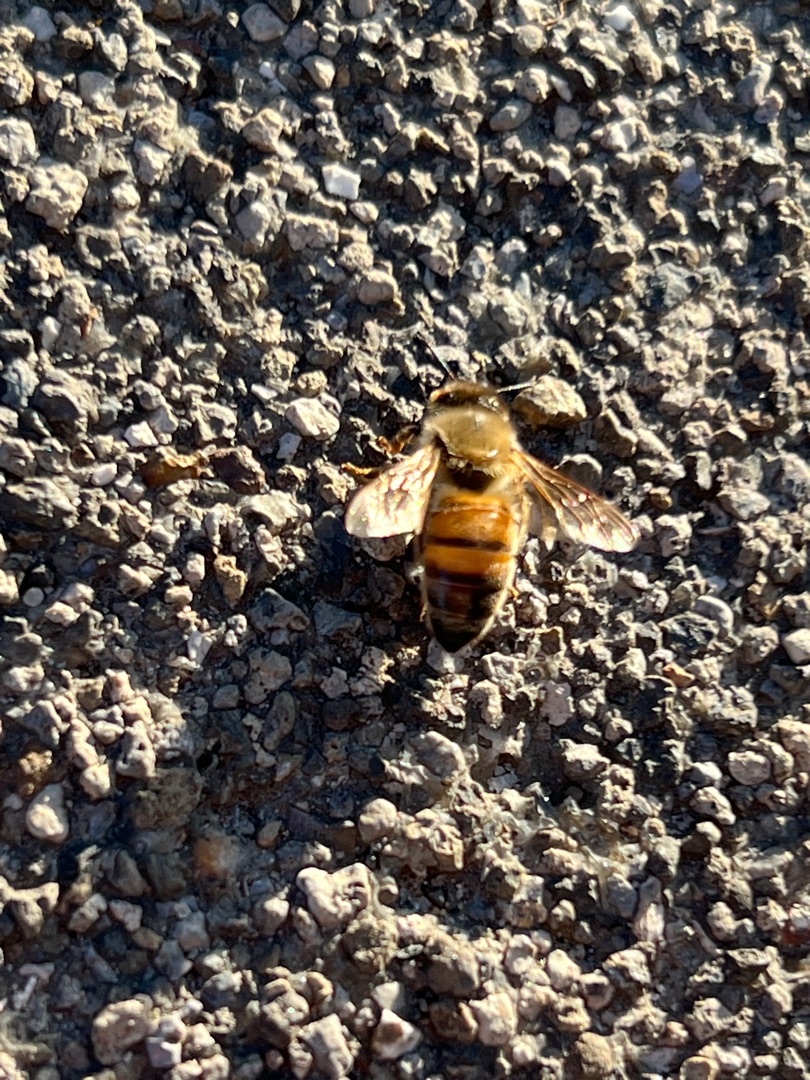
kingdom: Animalia
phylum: Arthropoda
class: Insecta
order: Hymenoptera
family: Apidae
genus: Apis
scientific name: Apis mellifera
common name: Honningbi
